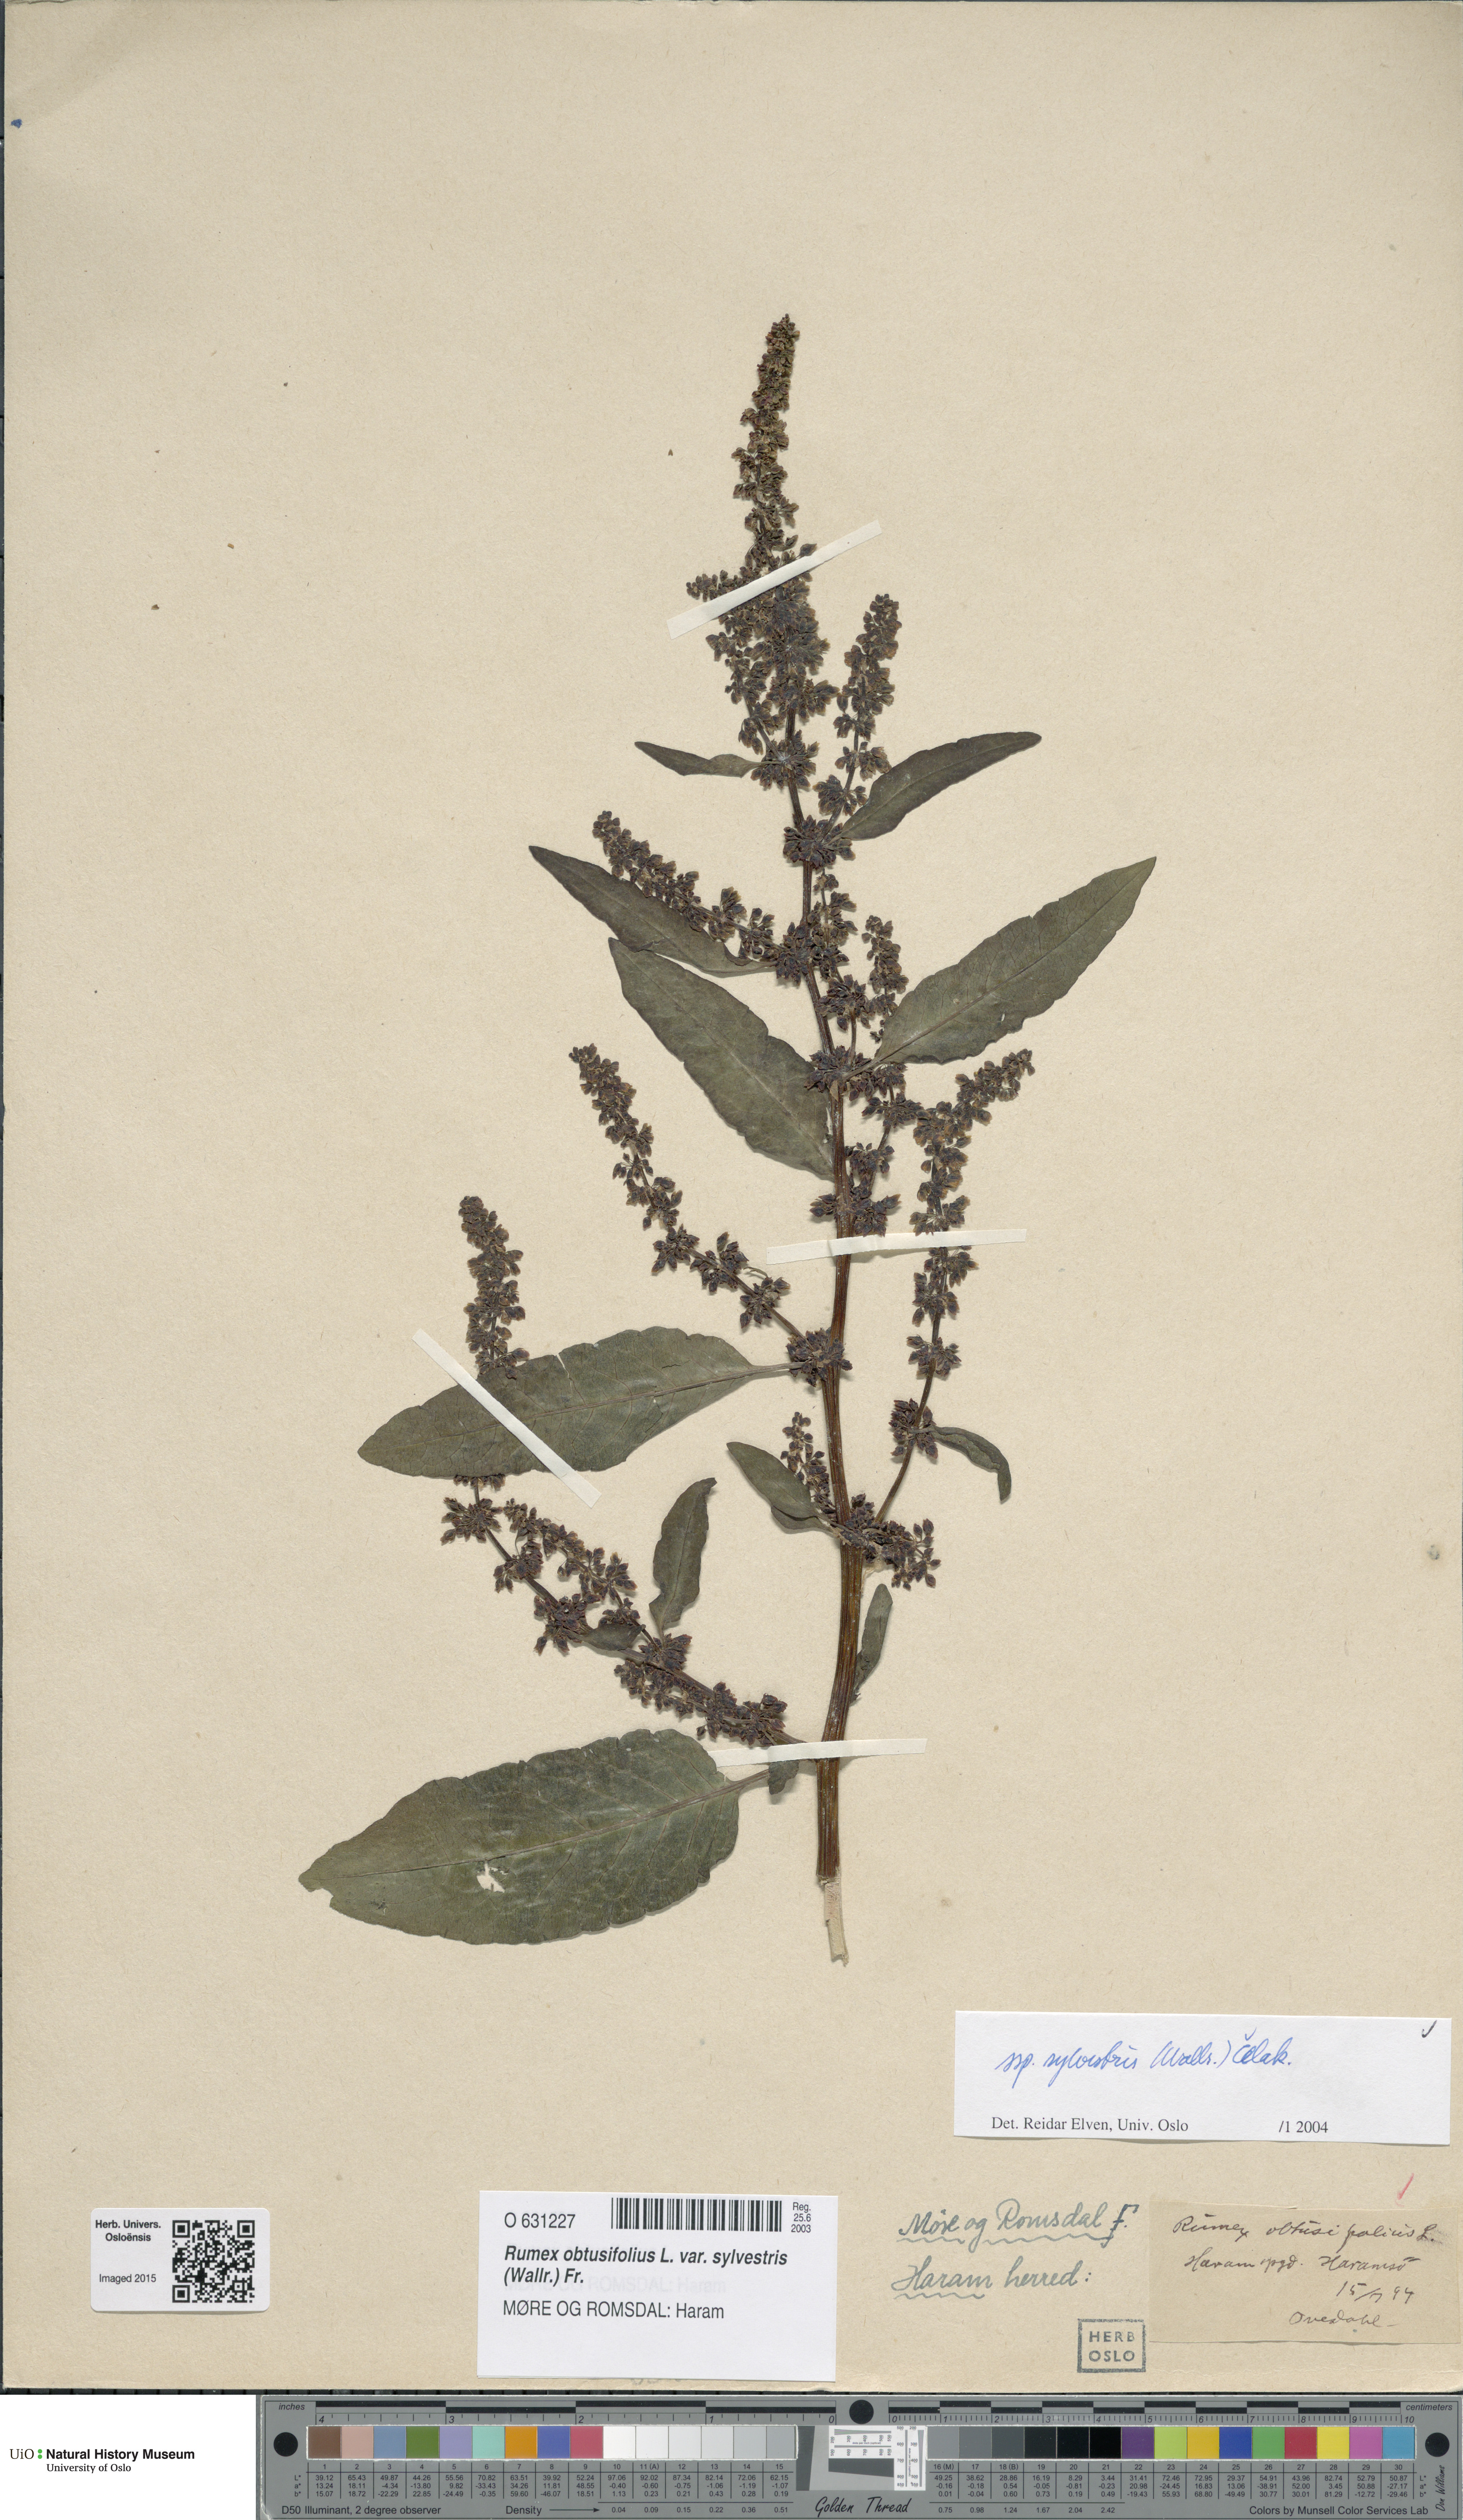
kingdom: Plantae
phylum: Tracheophyta
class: Magnoliopsida
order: Caryophyllales
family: Polygonaceae
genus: Rumex
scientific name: Rumex obtusifolius
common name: Bitter dock
